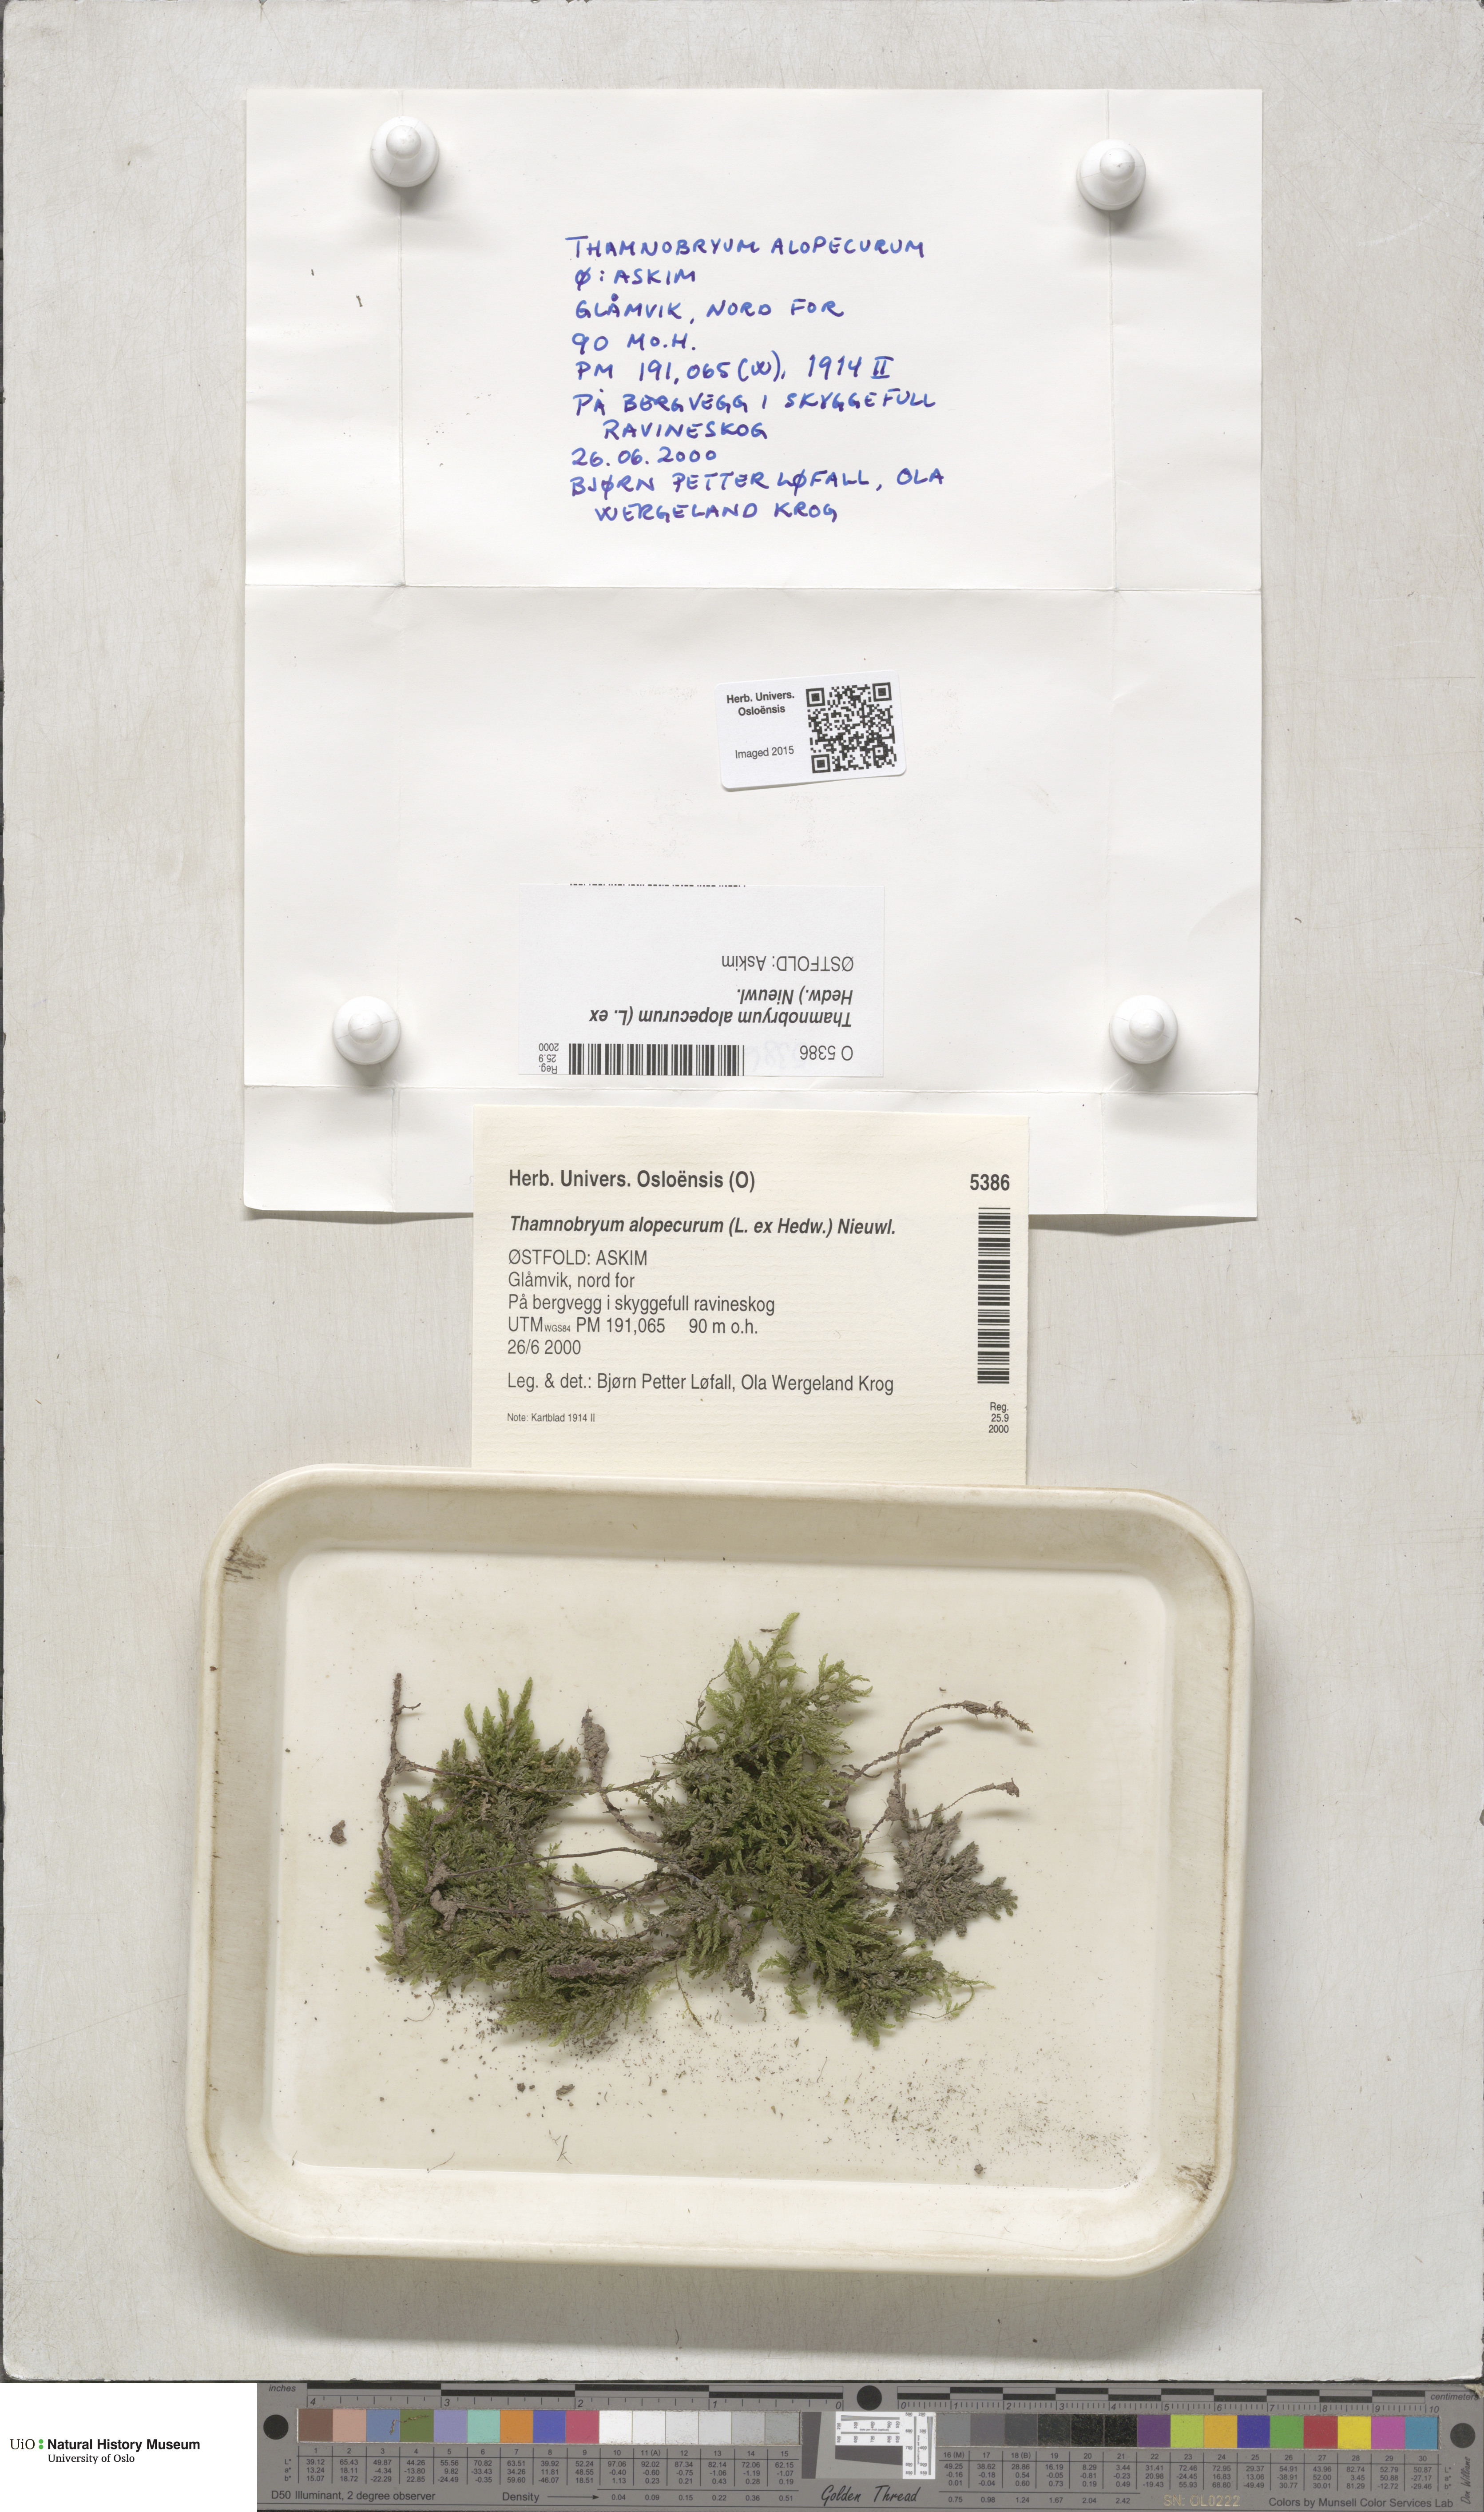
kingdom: Plantae
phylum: Bryophyta
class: Bryopsida
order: Hypnales
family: Neckeraceae
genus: Thamnobryum
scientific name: Thamnobryum alopecurum
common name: Fox-tail feather-moss
